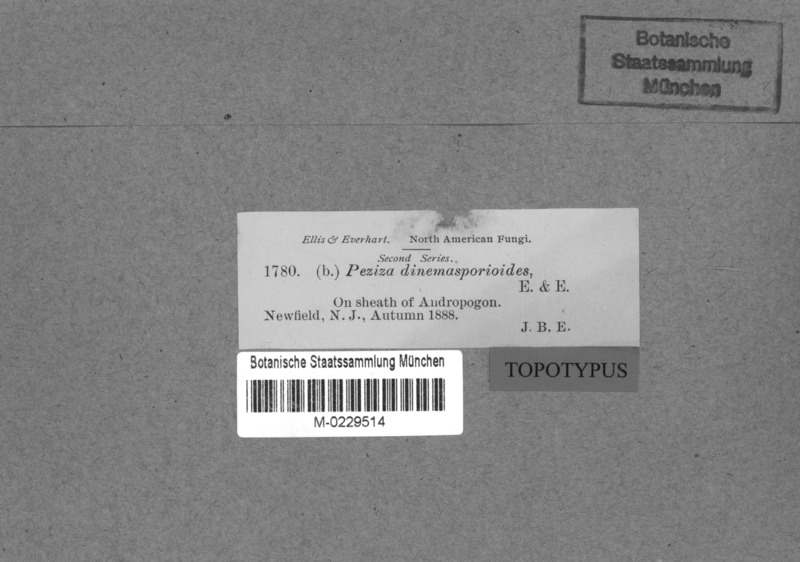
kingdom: Fungi
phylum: Ascomycota
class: Leotiomycetes
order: Helotiales
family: Helotiaceae
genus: Gorgoniceps
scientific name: Gorgoniceps dinemasporioides
